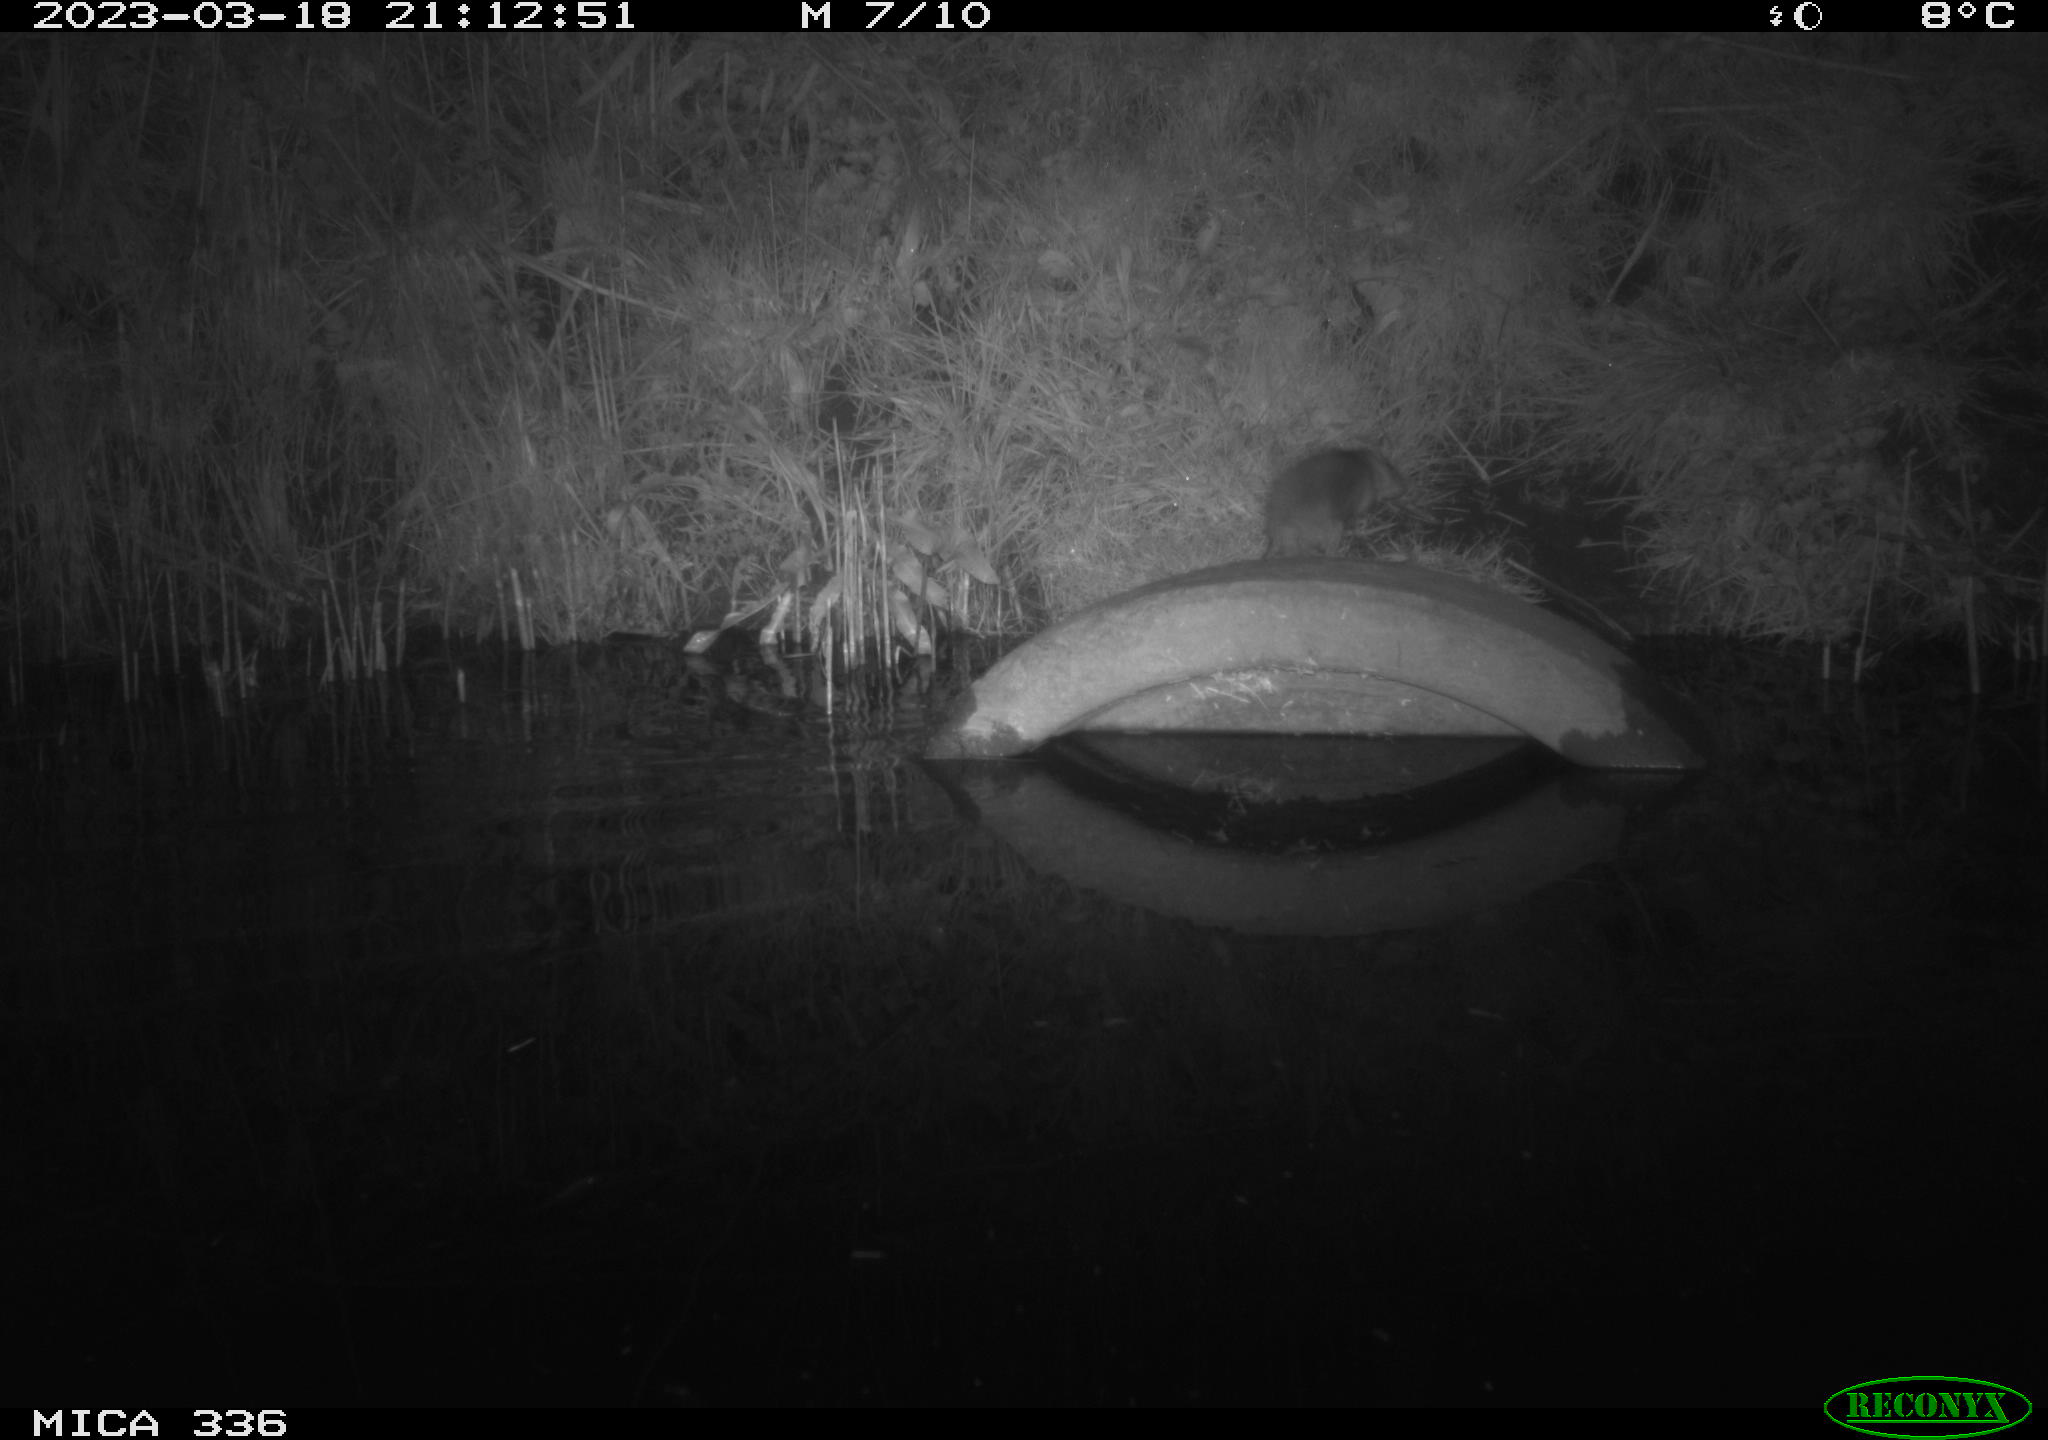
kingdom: Animalia
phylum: Chordata
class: Mammalia
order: Rodentia
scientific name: Rodentia
